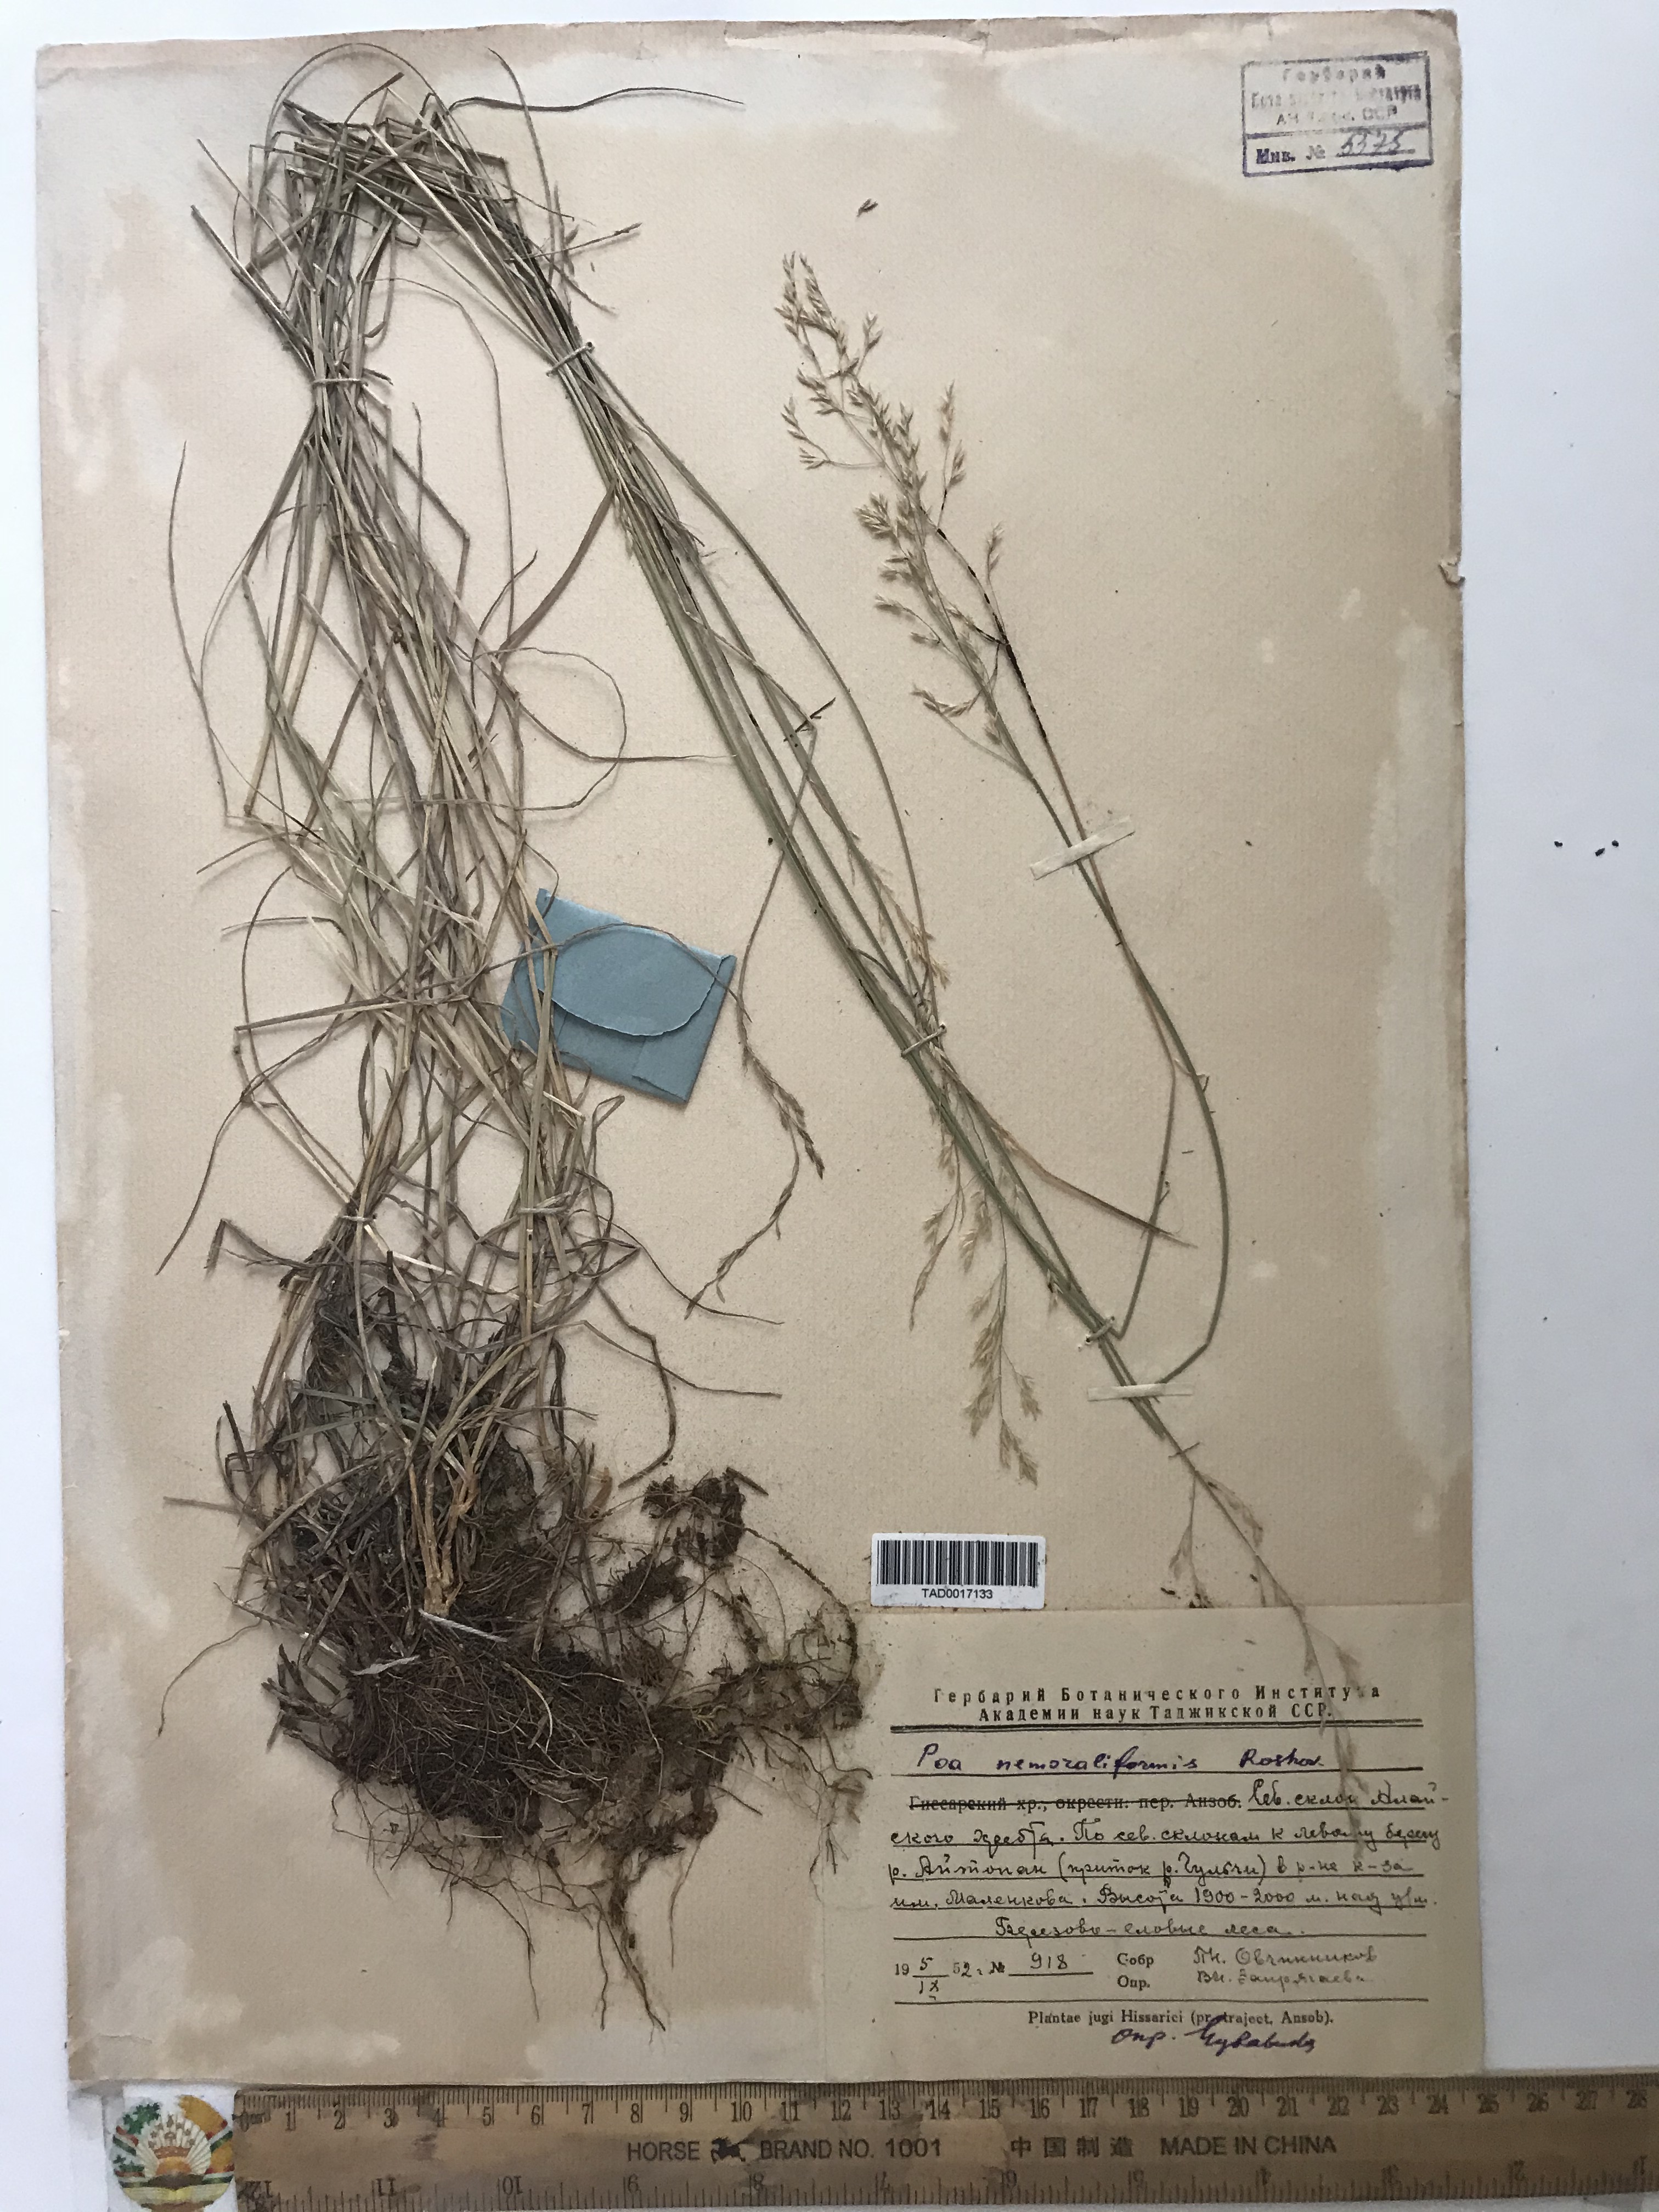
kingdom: Plantae
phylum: Tracheophyta
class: Liliopsida
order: Poales
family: Poaceae
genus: Poa
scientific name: Poa urssulensis
